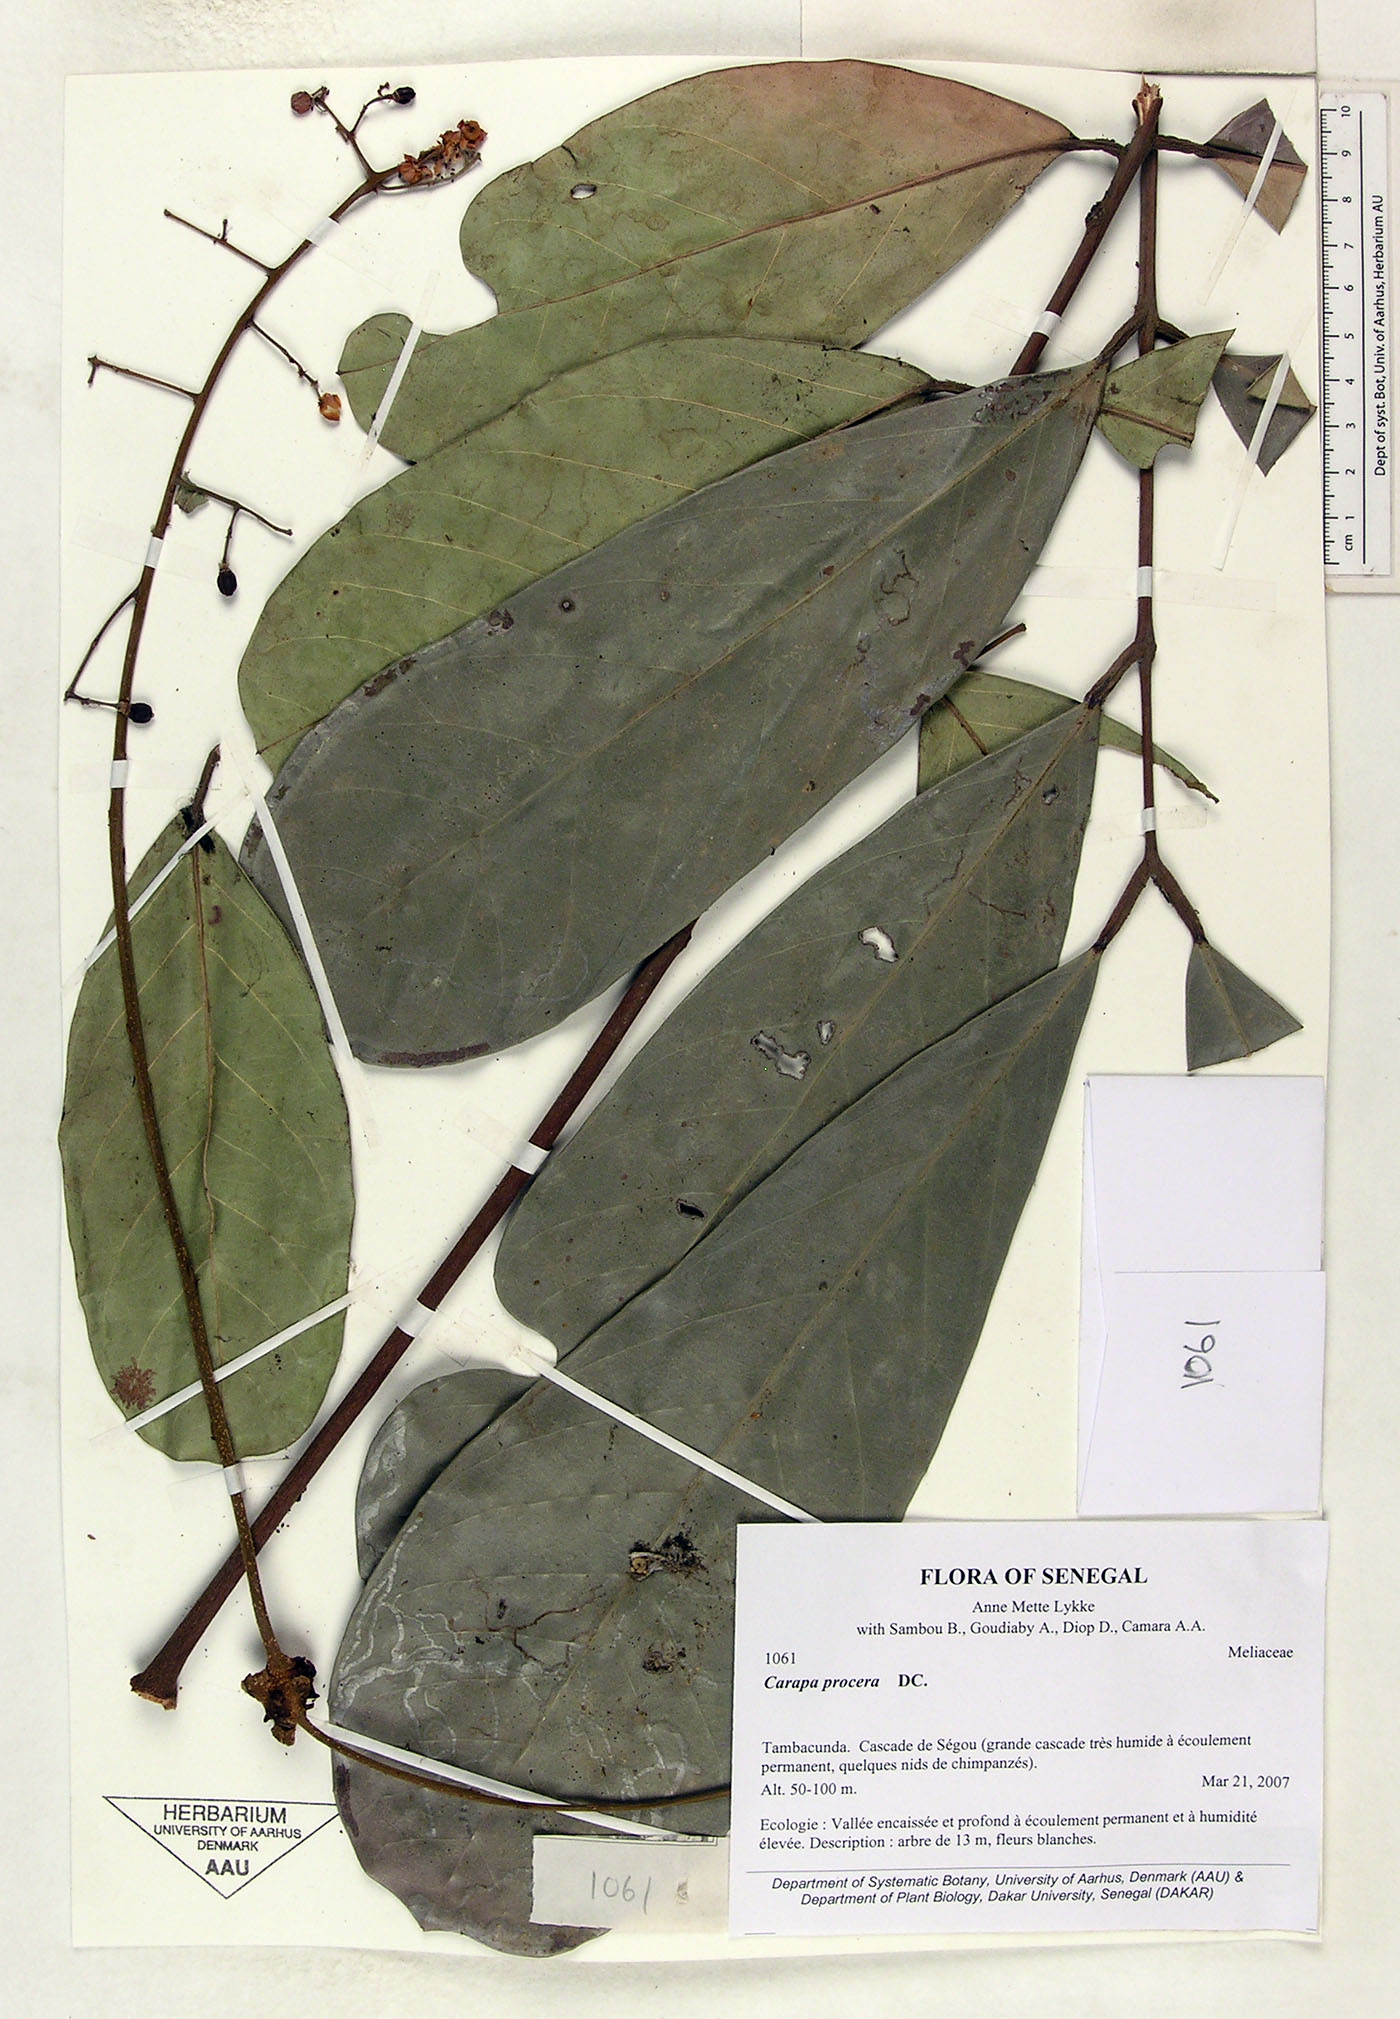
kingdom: Plantae
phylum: Tracheophyta
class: Magnoliopsida
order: Sapindales
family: Meliaceae
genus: Carapa
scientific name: Carapa procera
